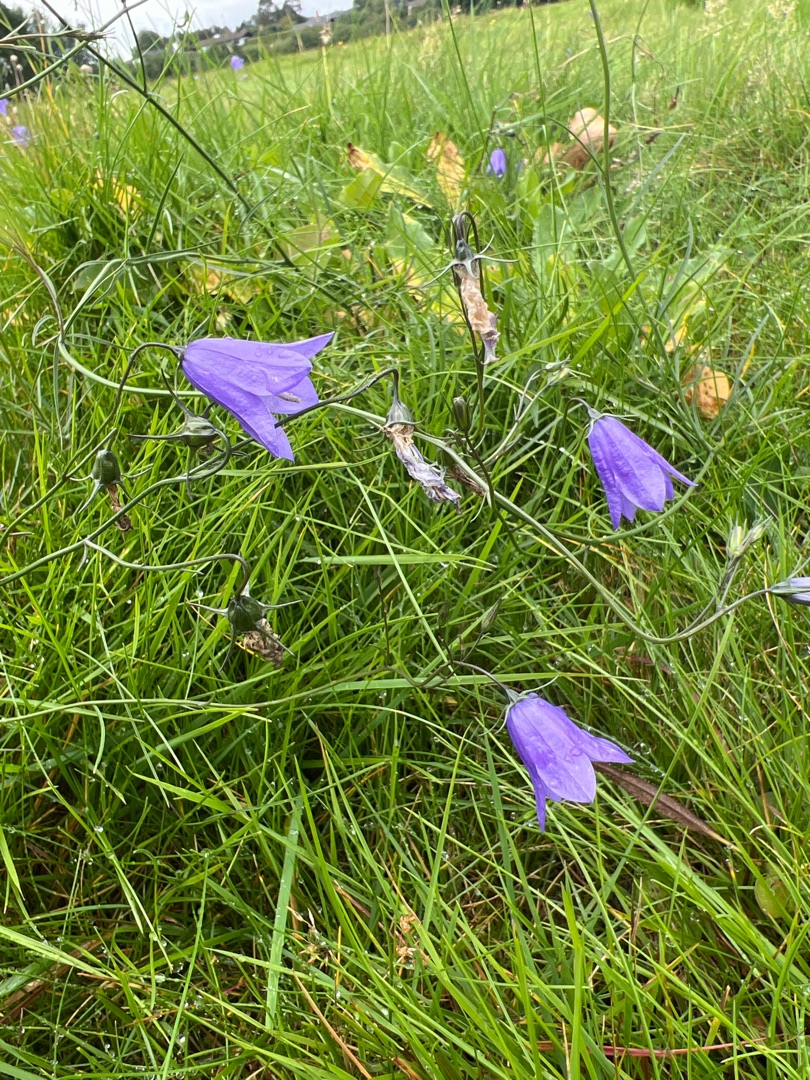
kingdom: Plantae
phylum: Tracheophyta
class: Magnoliopsida
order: Asterales
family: Campanulaceae
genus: Campanula
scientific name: Campanula rotundifolia
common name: Liden klokke
